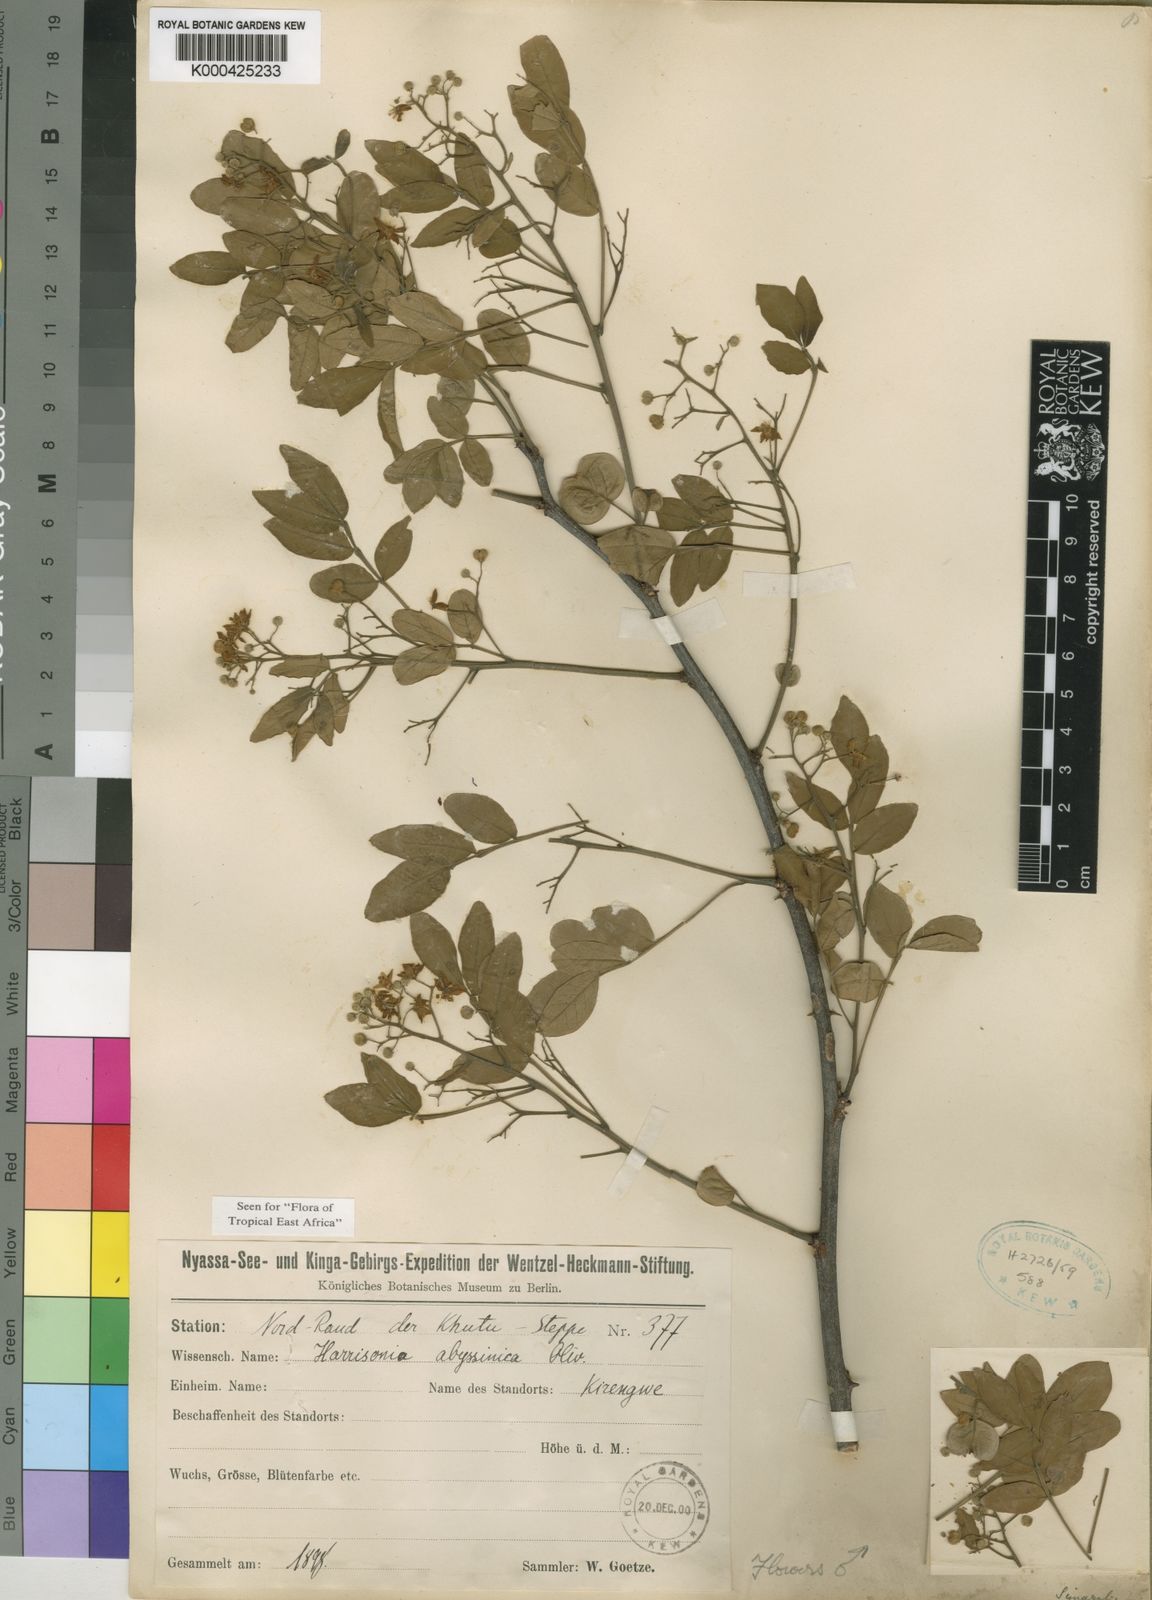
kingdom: Plantae
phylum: Tracheophyta
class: Magnoliopsida
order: Sapindales
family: Rutaceae
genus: Harrisonia
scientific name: Harrisonia abyssinica
